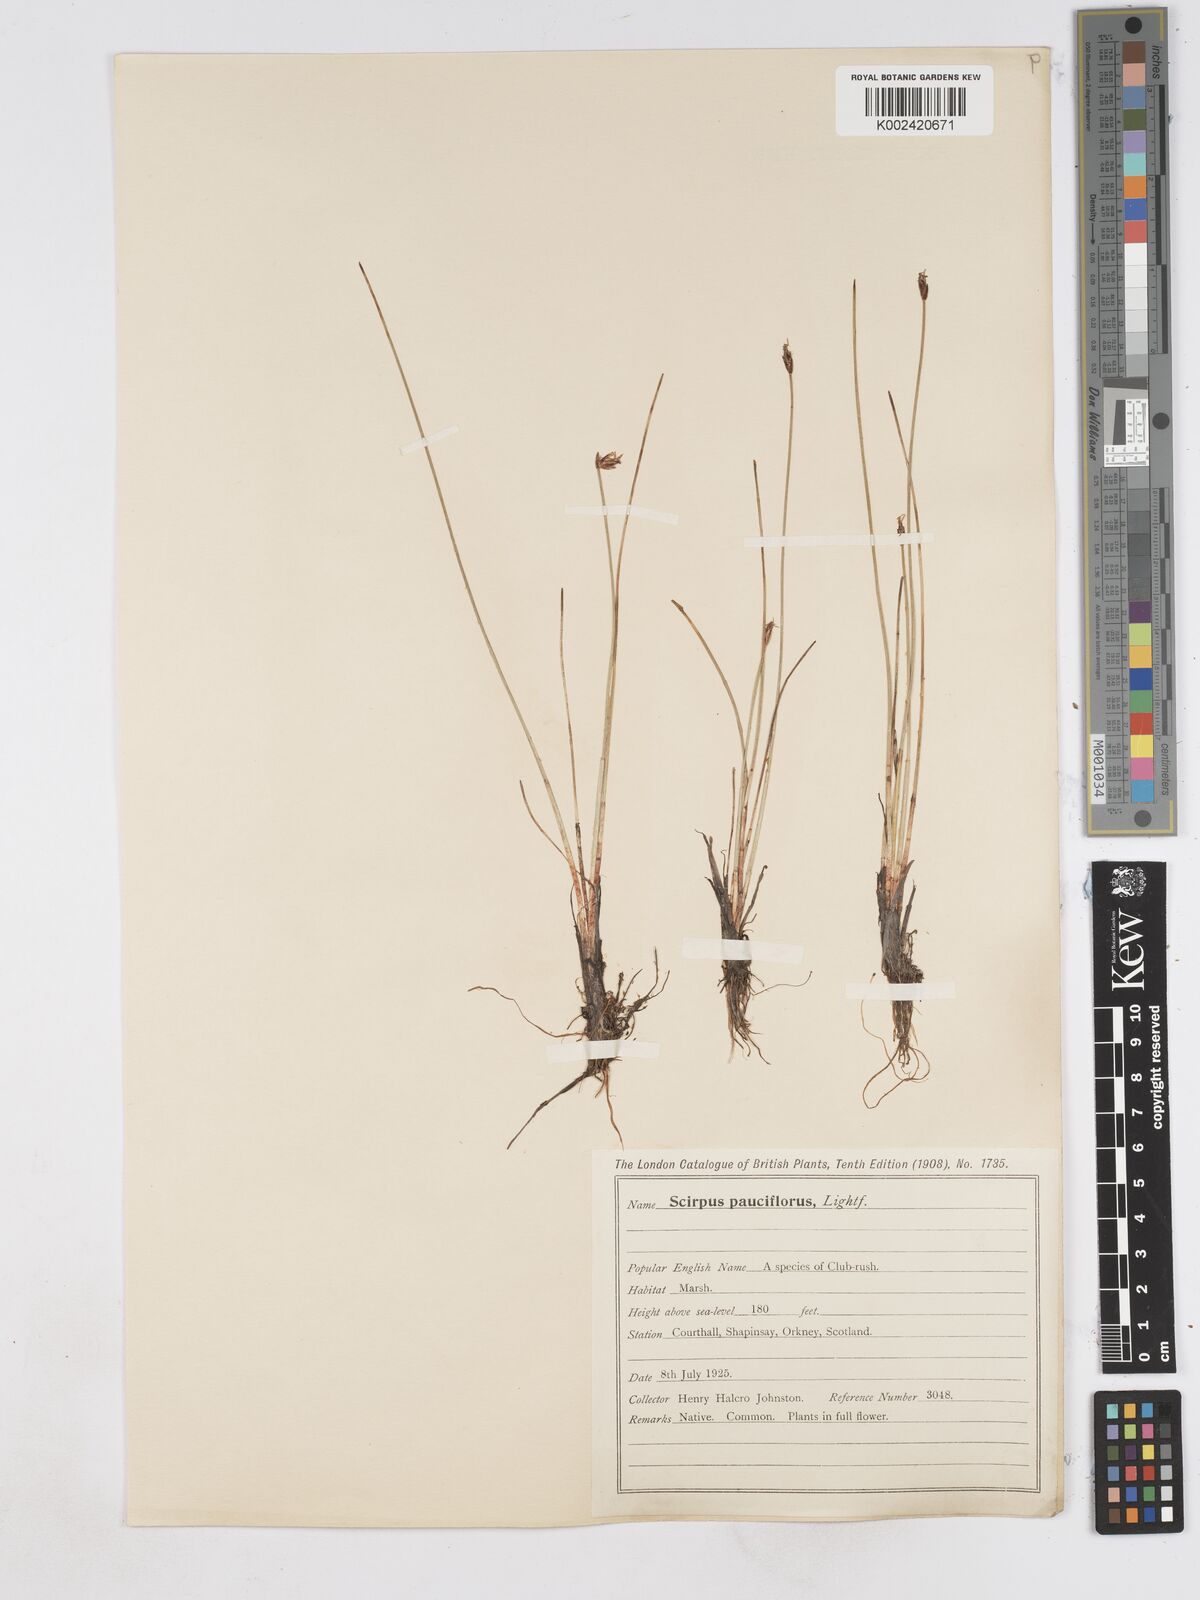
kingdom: Plantae
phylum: Tracheophyta
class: Liliopsida
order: Poales
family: Cyperaceae
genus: Eleocharis
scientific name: Eleocharis quinqueflora
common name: Few-flowered spike-rush
